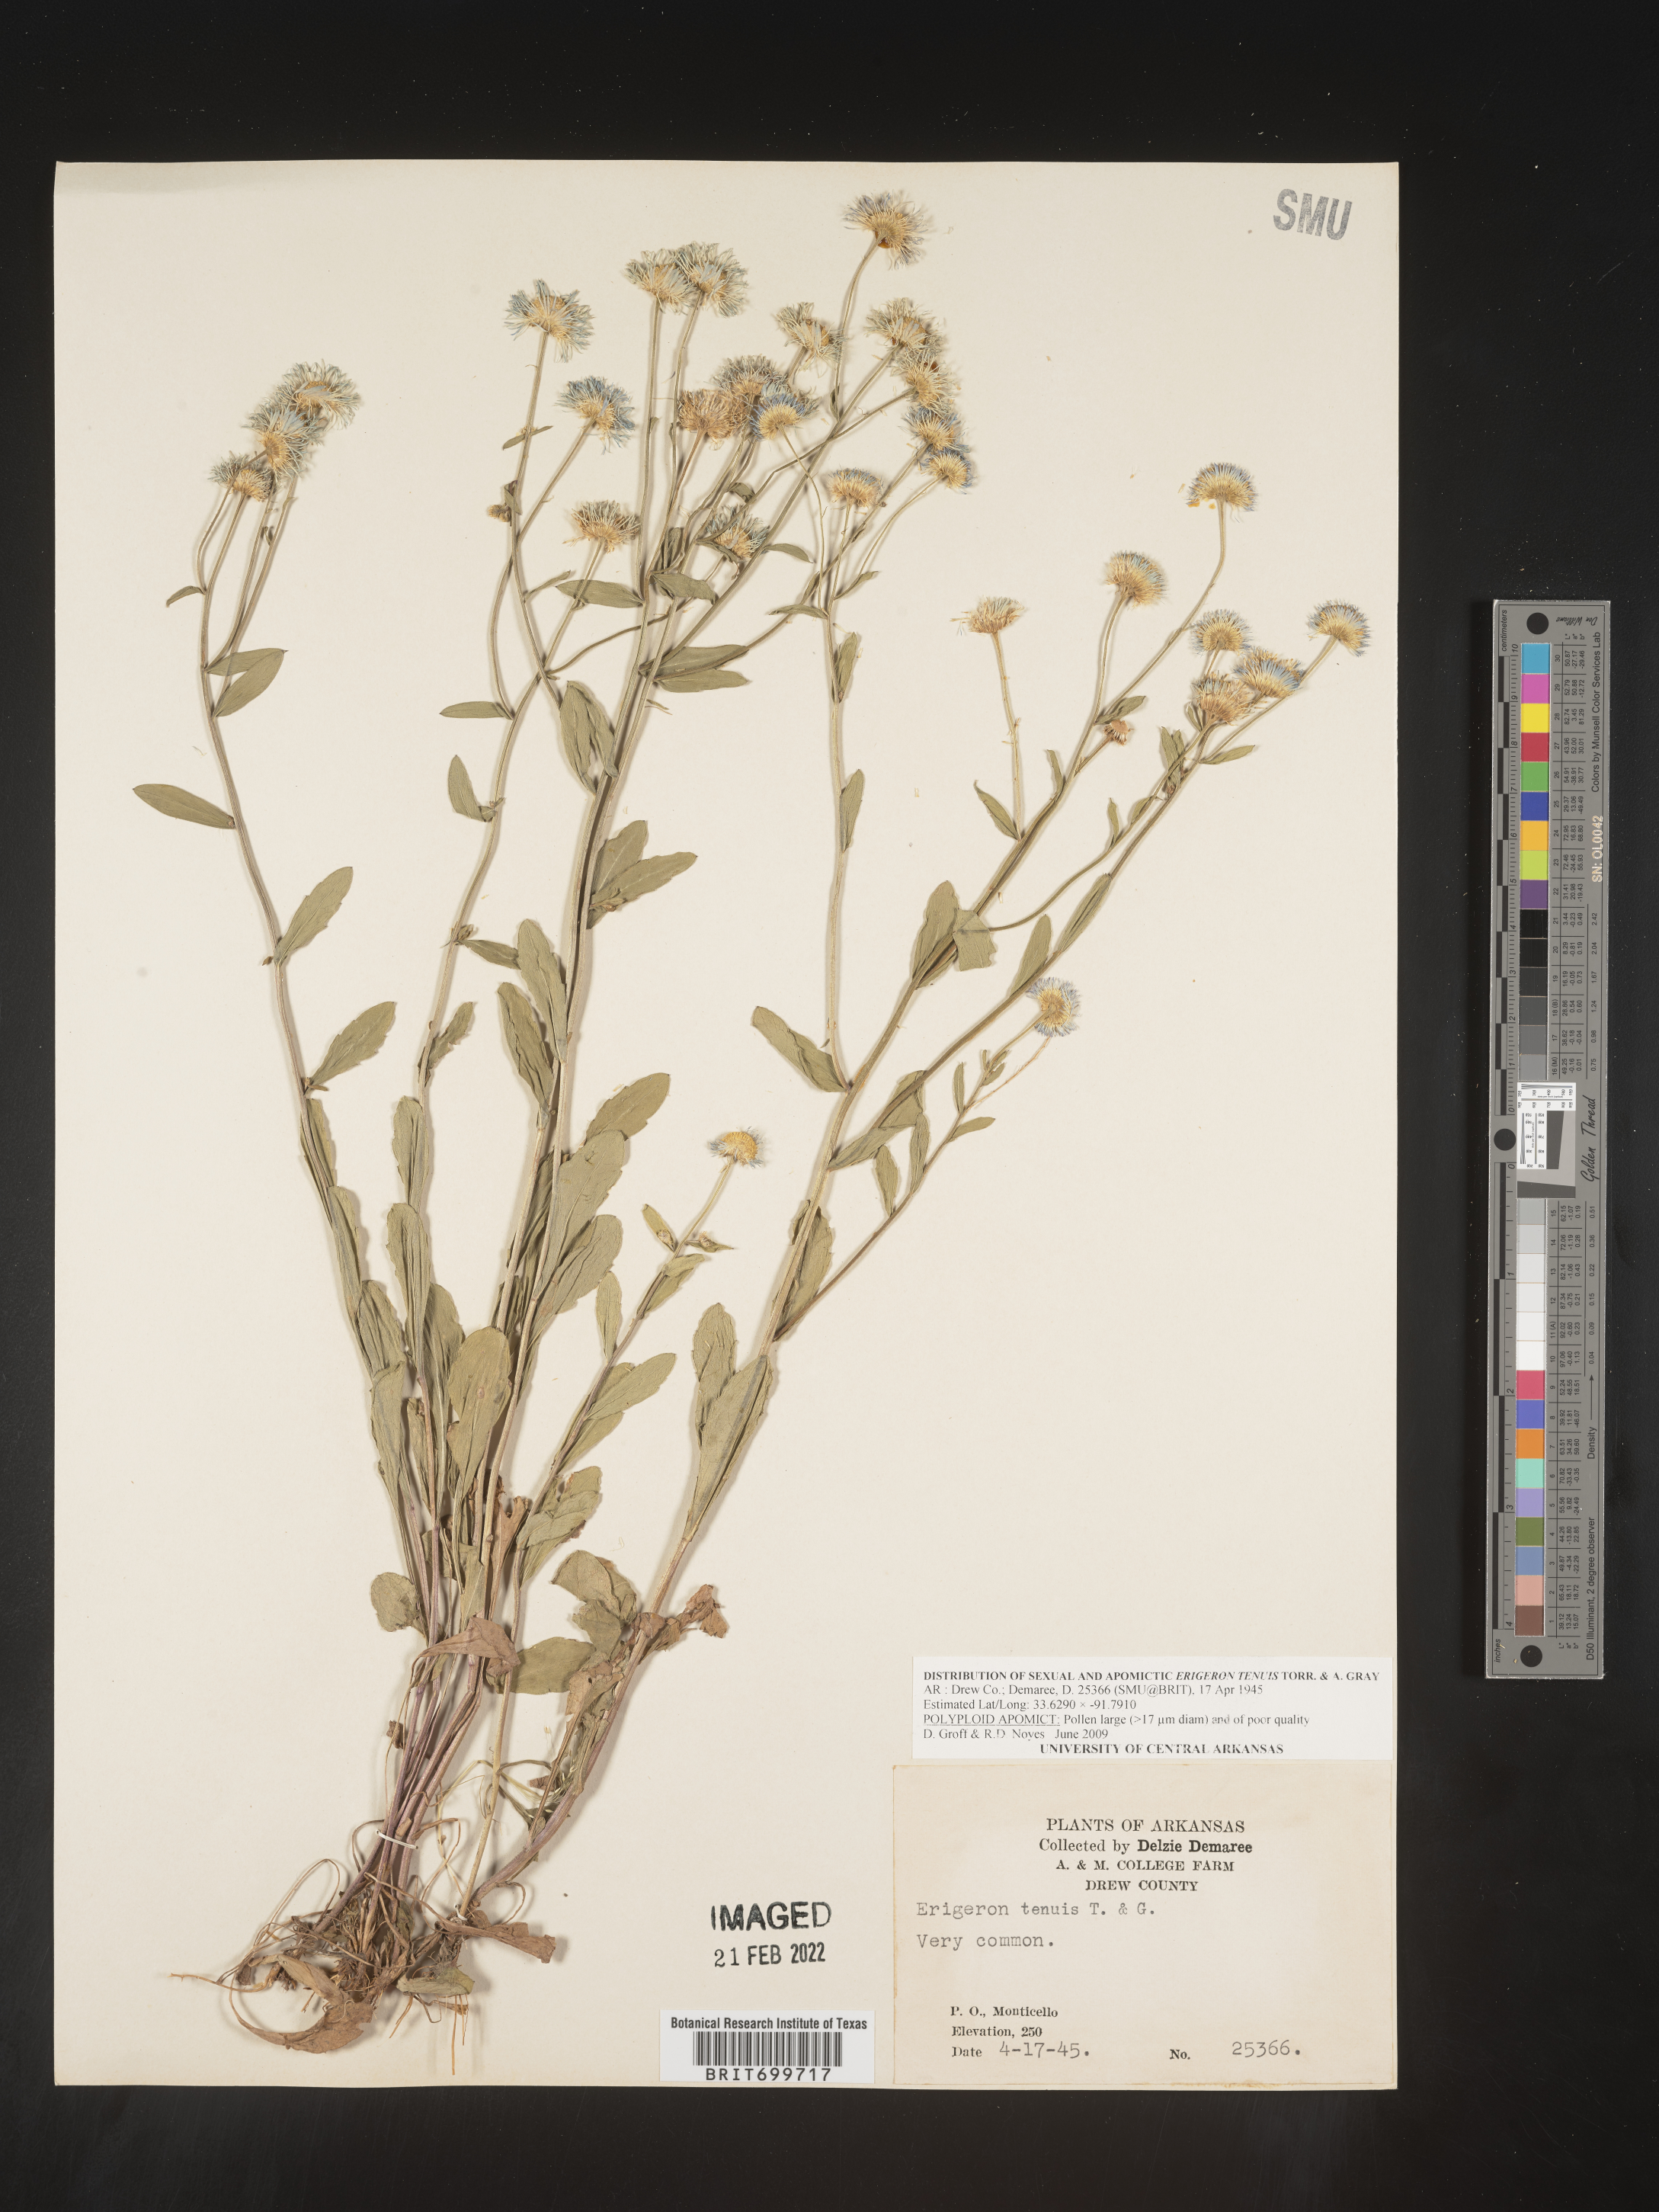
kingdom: Plantae
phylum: Tracheophyta
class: Magnoliopsida
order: Asterales
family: Asteraceae
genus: Erigeron
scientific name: Erigeron tenuis
